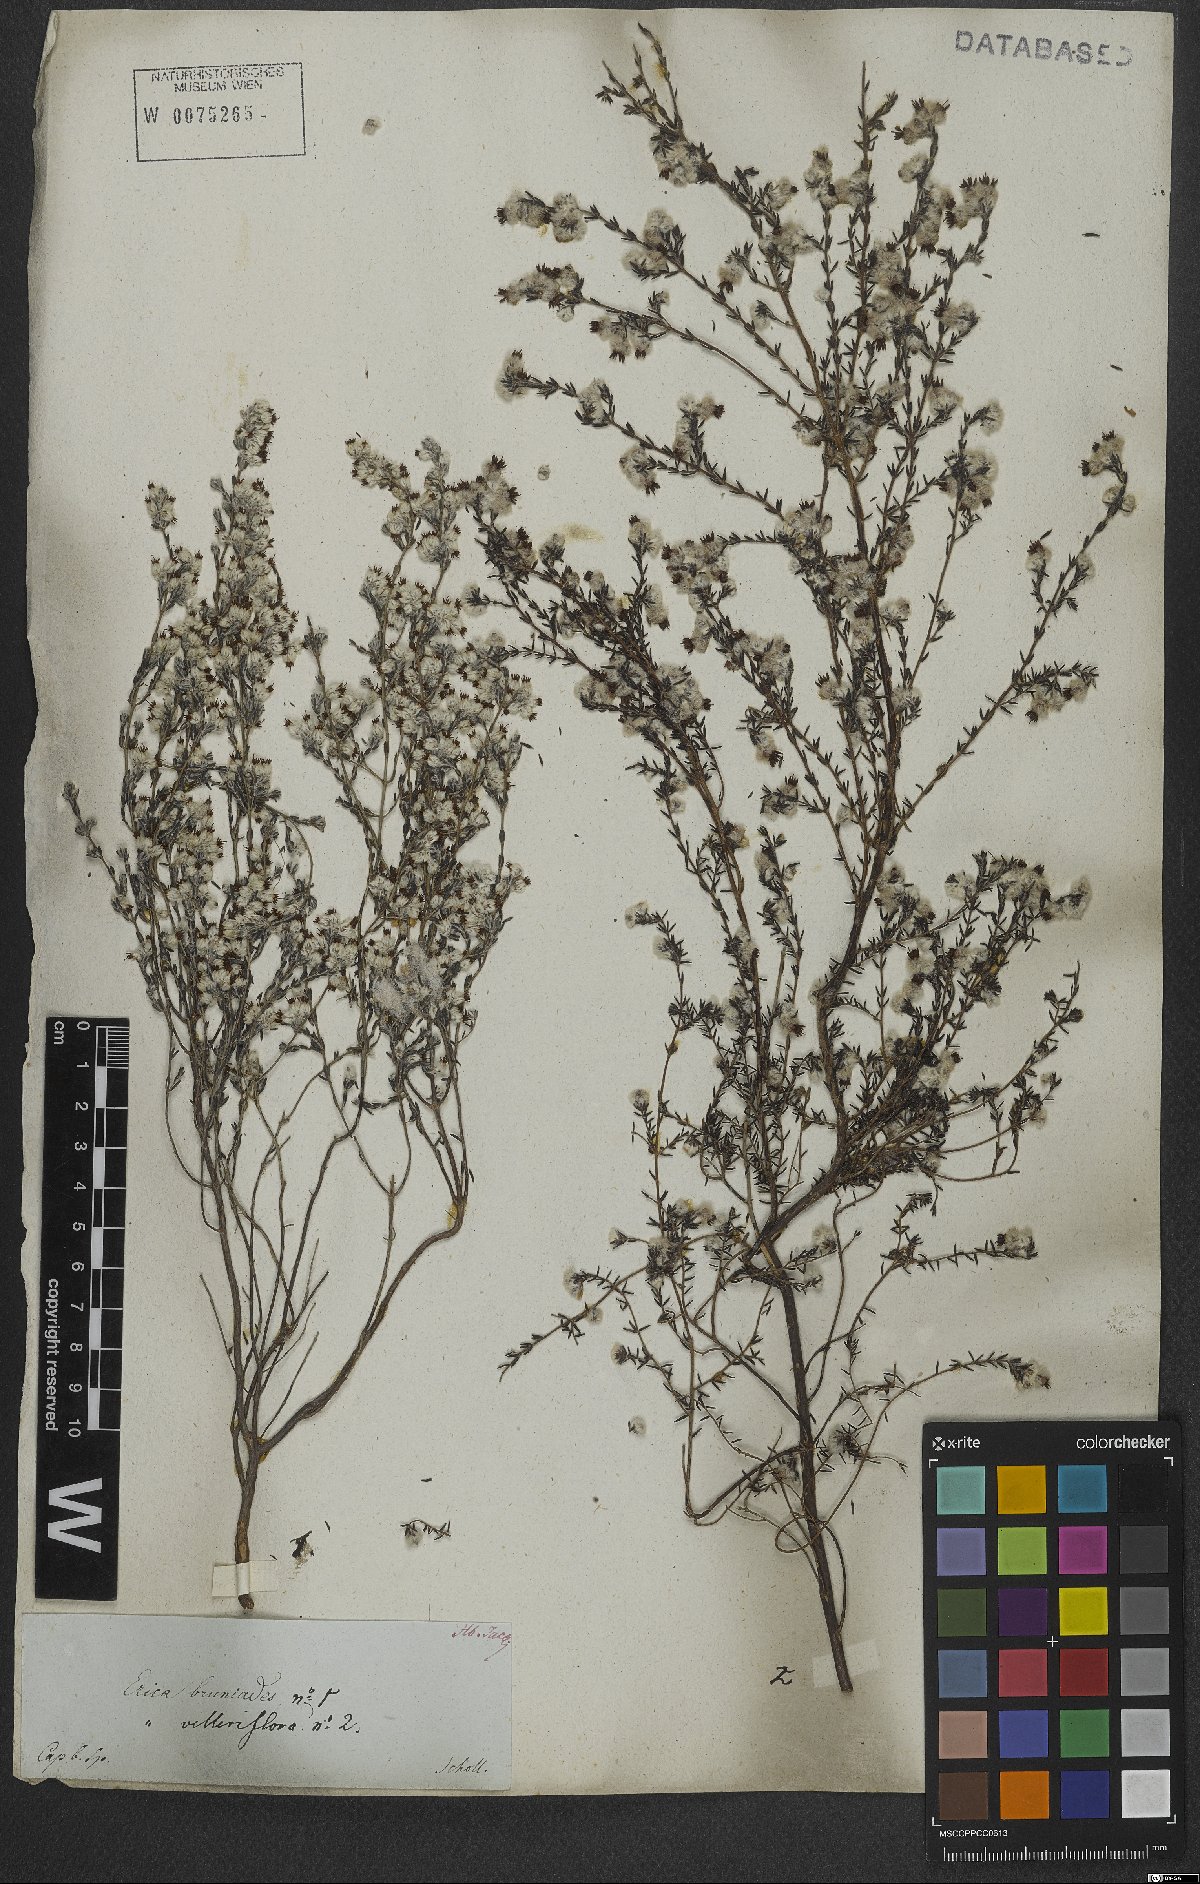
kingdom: Plantae
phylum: Tracheophyta
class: Magnoliopsida
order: Ericales
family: Ericaceae
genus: Erica
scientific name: Erica bruniades
